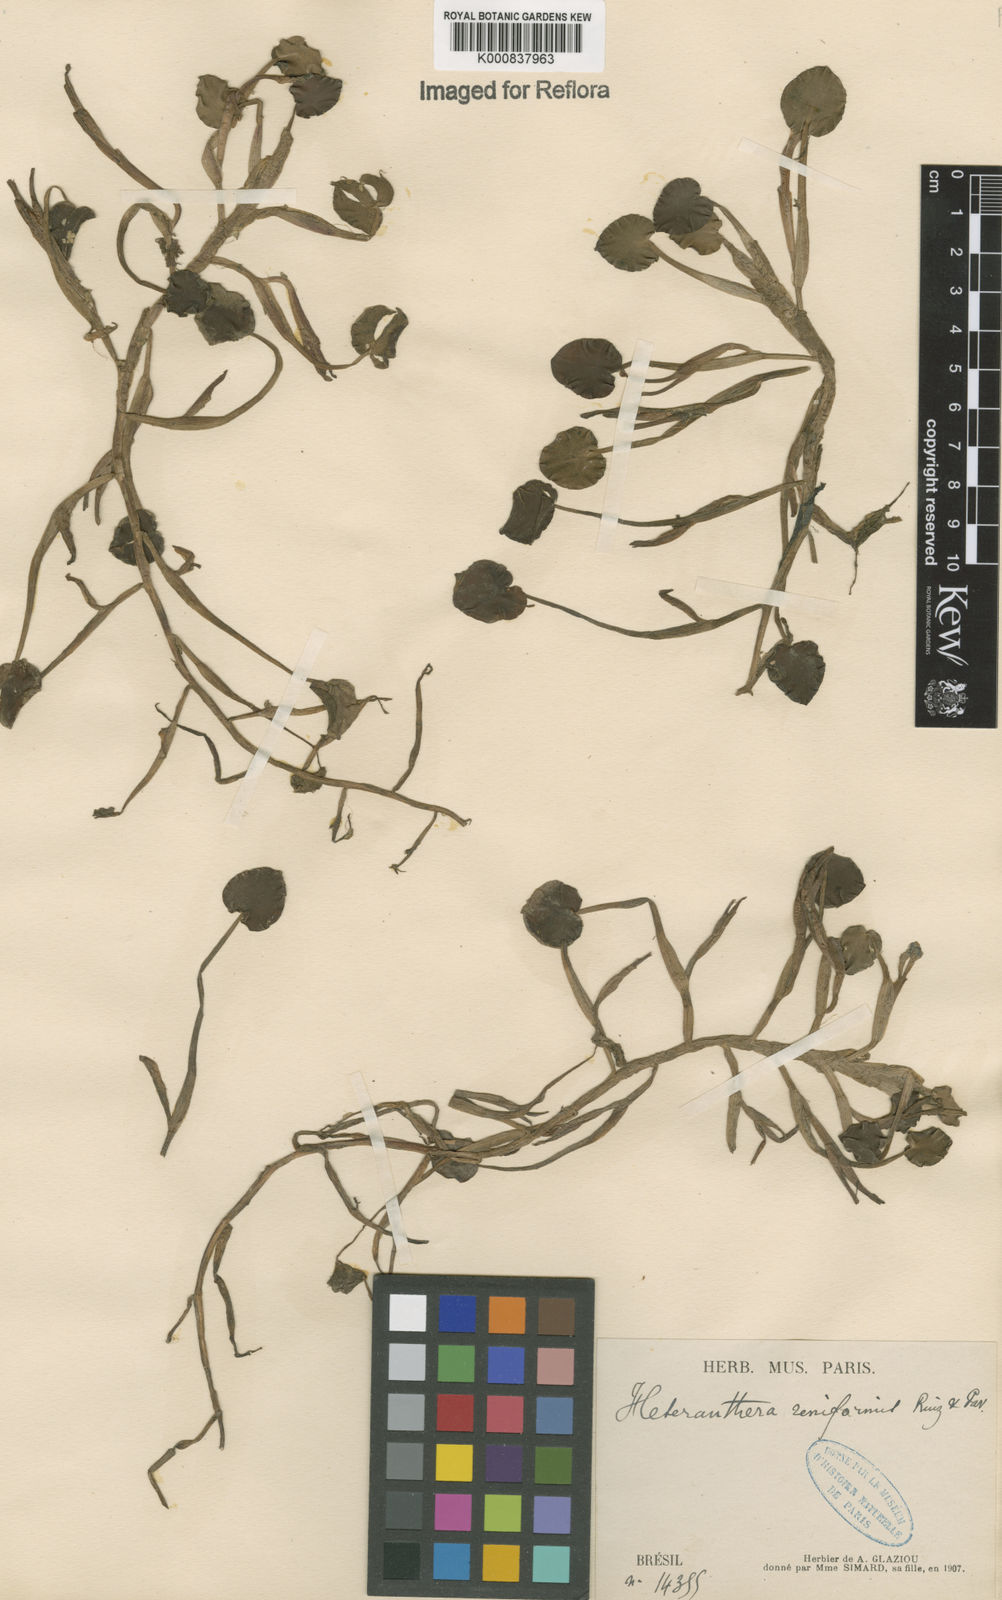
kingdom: Plantae
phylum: Tracheophyta
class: Liliopsida
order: Commelinales
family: Pontederiaceae
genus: Pontederia
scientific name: Pontederia diversifolia
